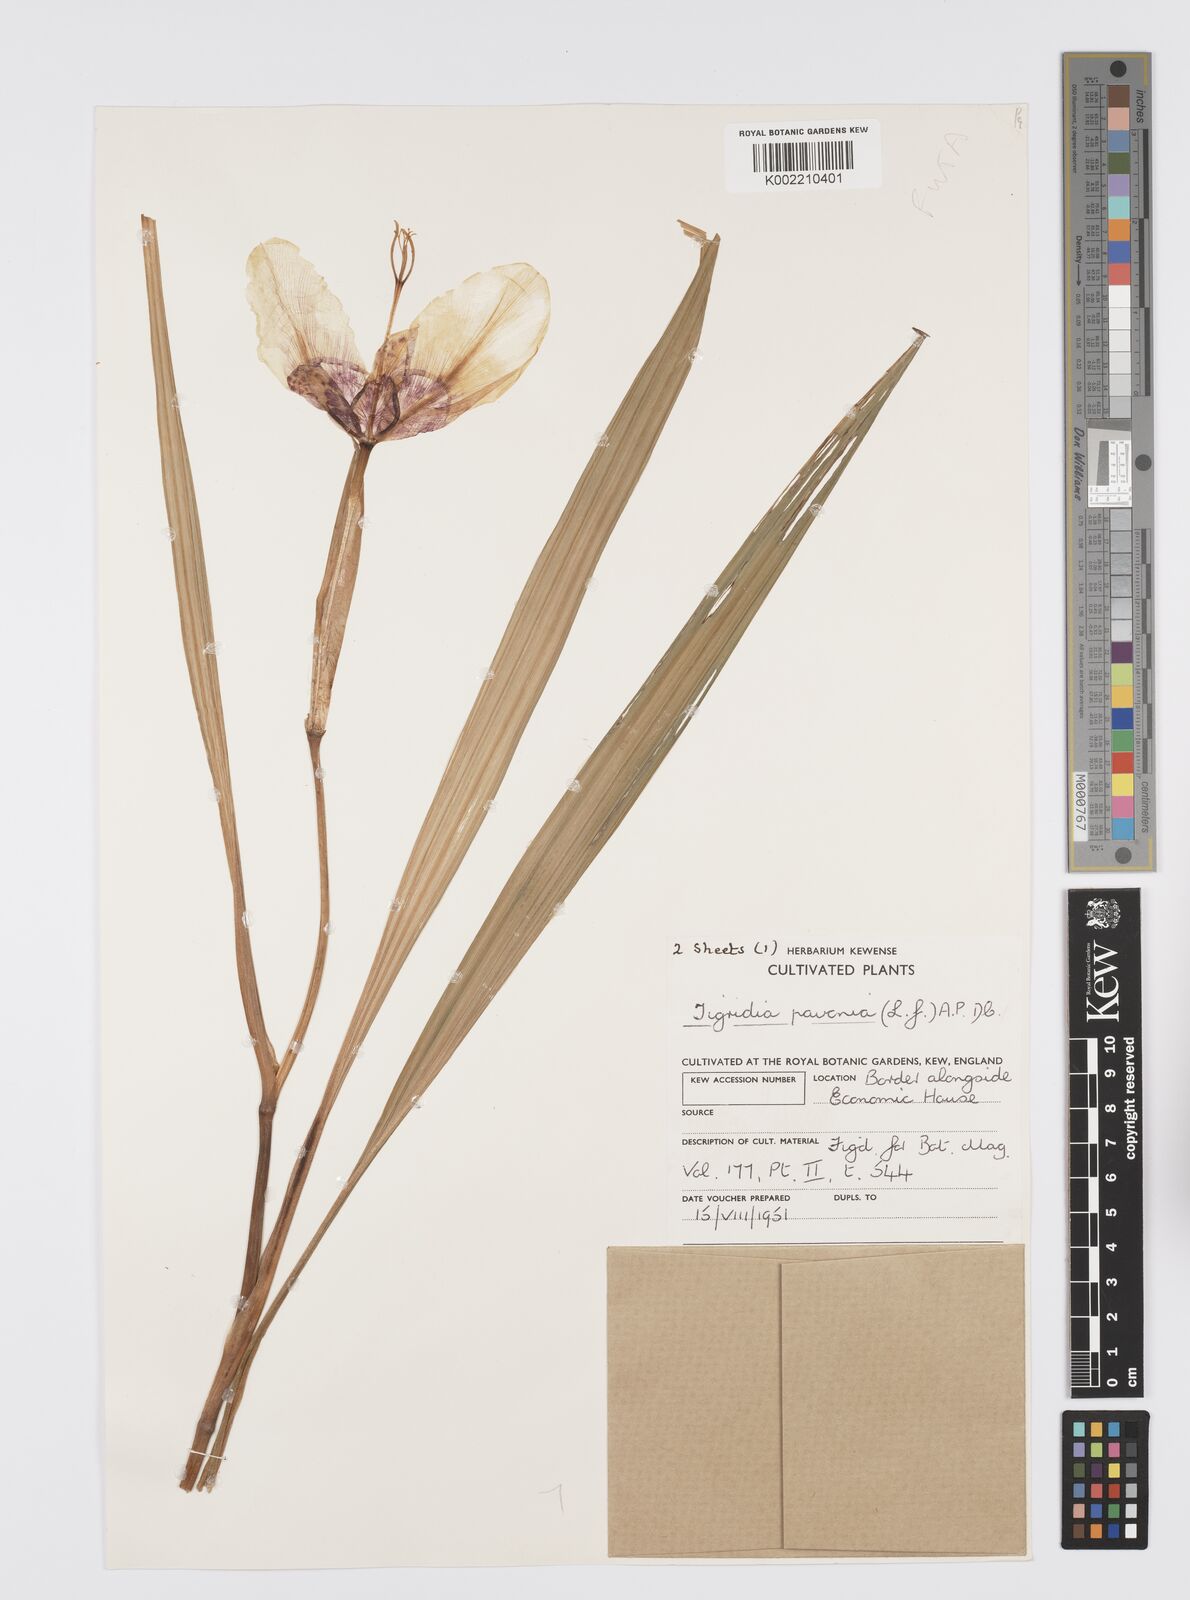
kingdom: Plantae
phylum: Tracheophyta
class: Liliopsida
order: Asparagales
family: Iridaceae
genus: Tigridia
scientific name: Tigridia pavonia
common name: Peacock-flower
